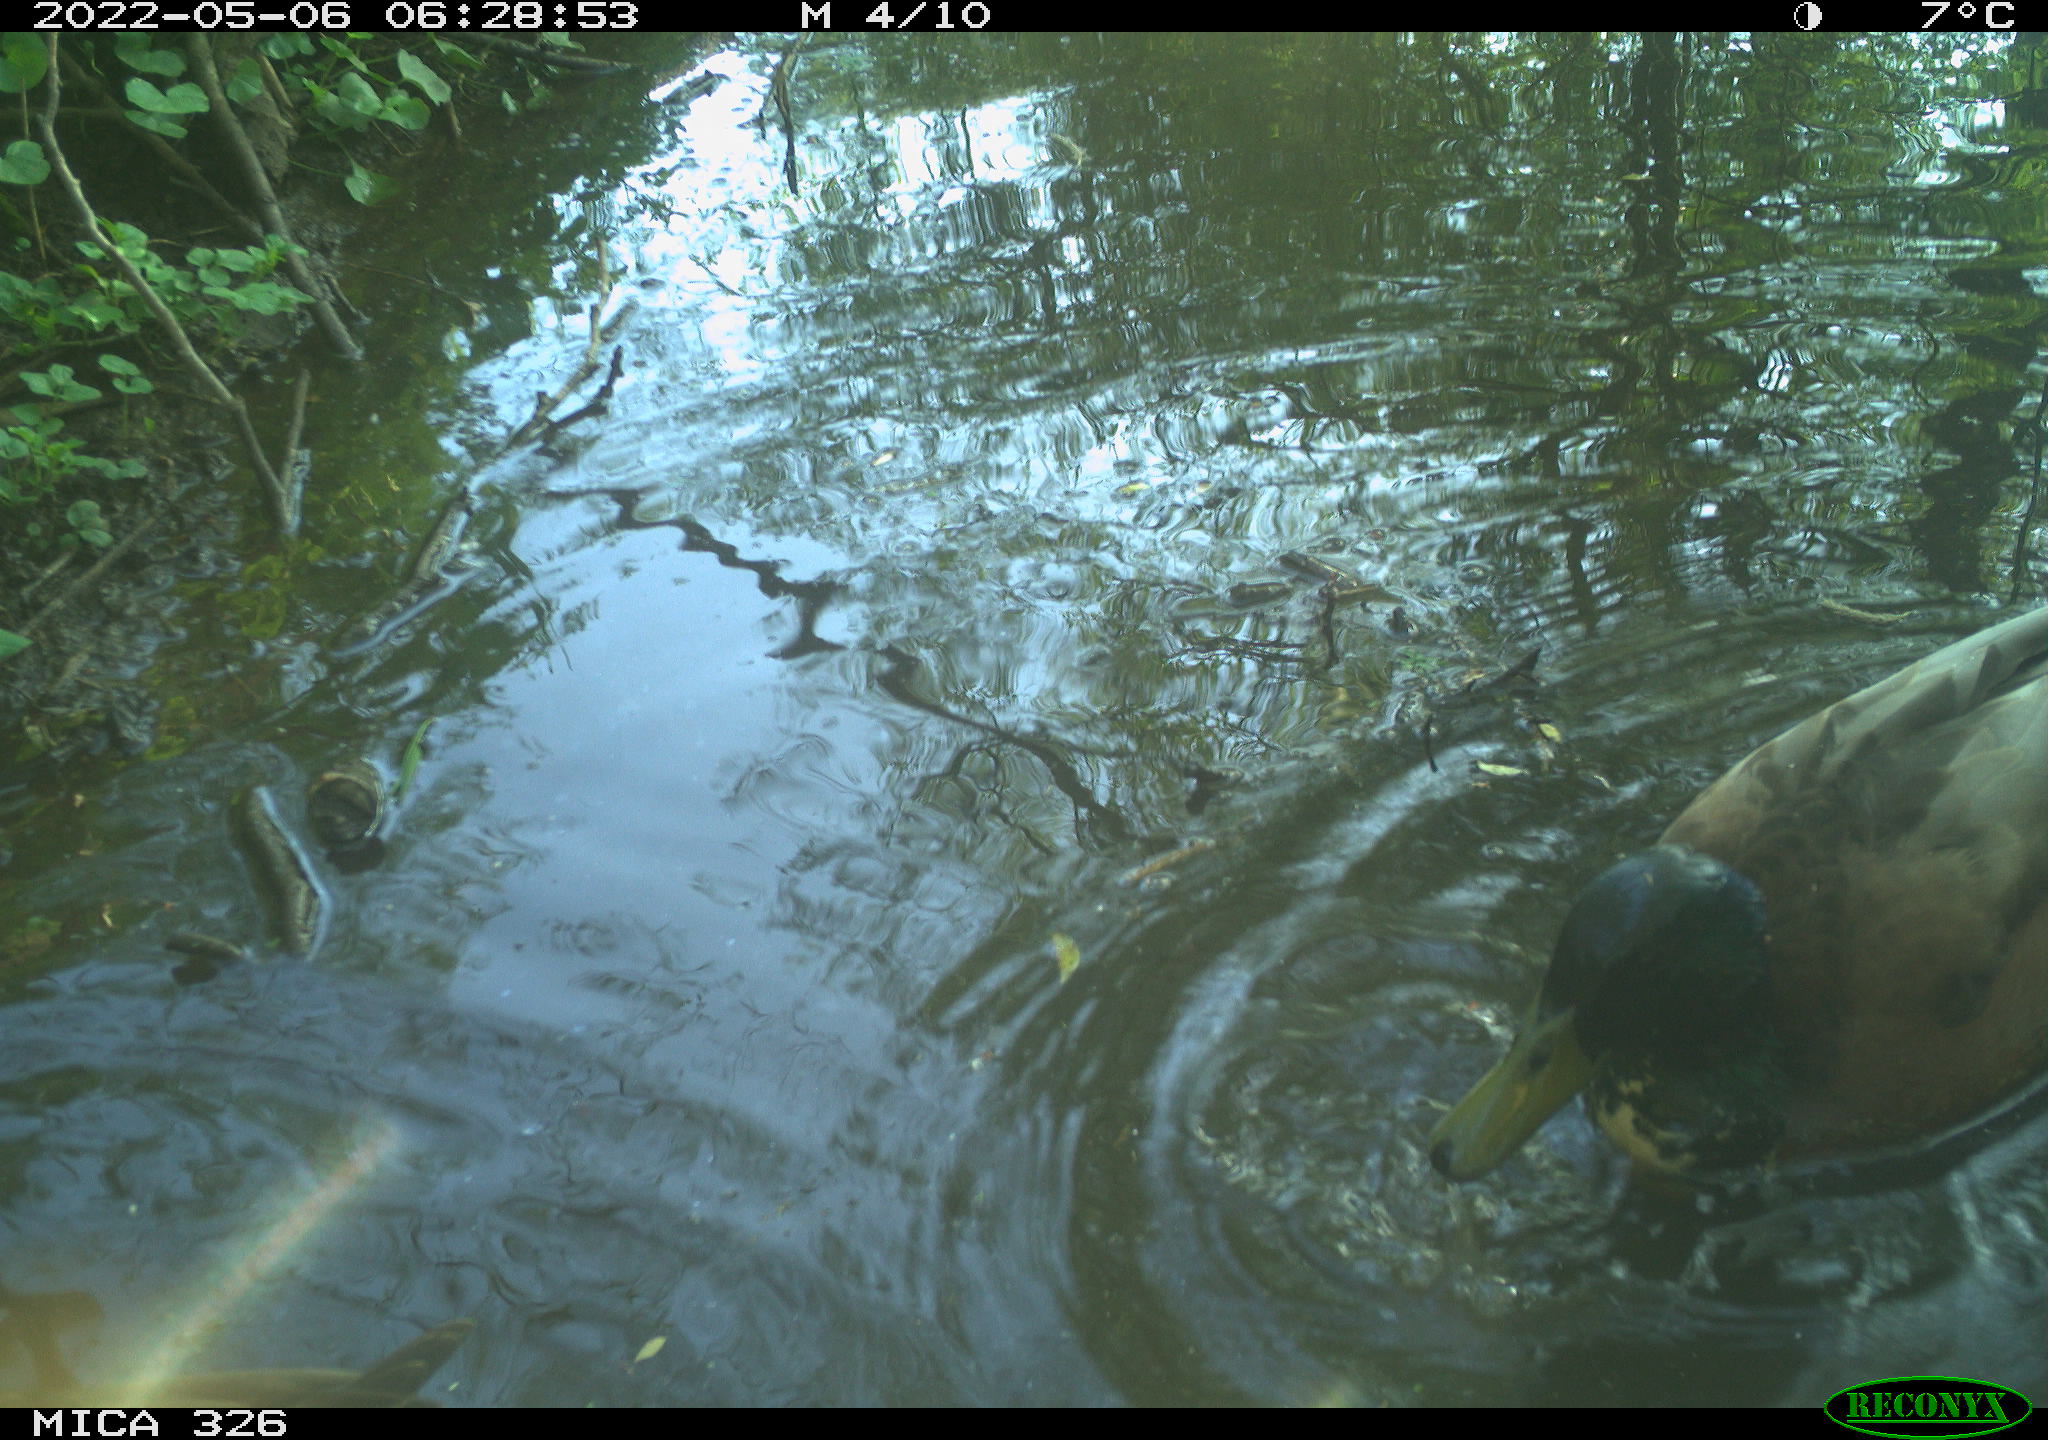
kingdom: Animalia
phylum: Chordata
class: Aves
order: Anseriformes
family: Anatidae
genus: Anas
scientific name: Anas
